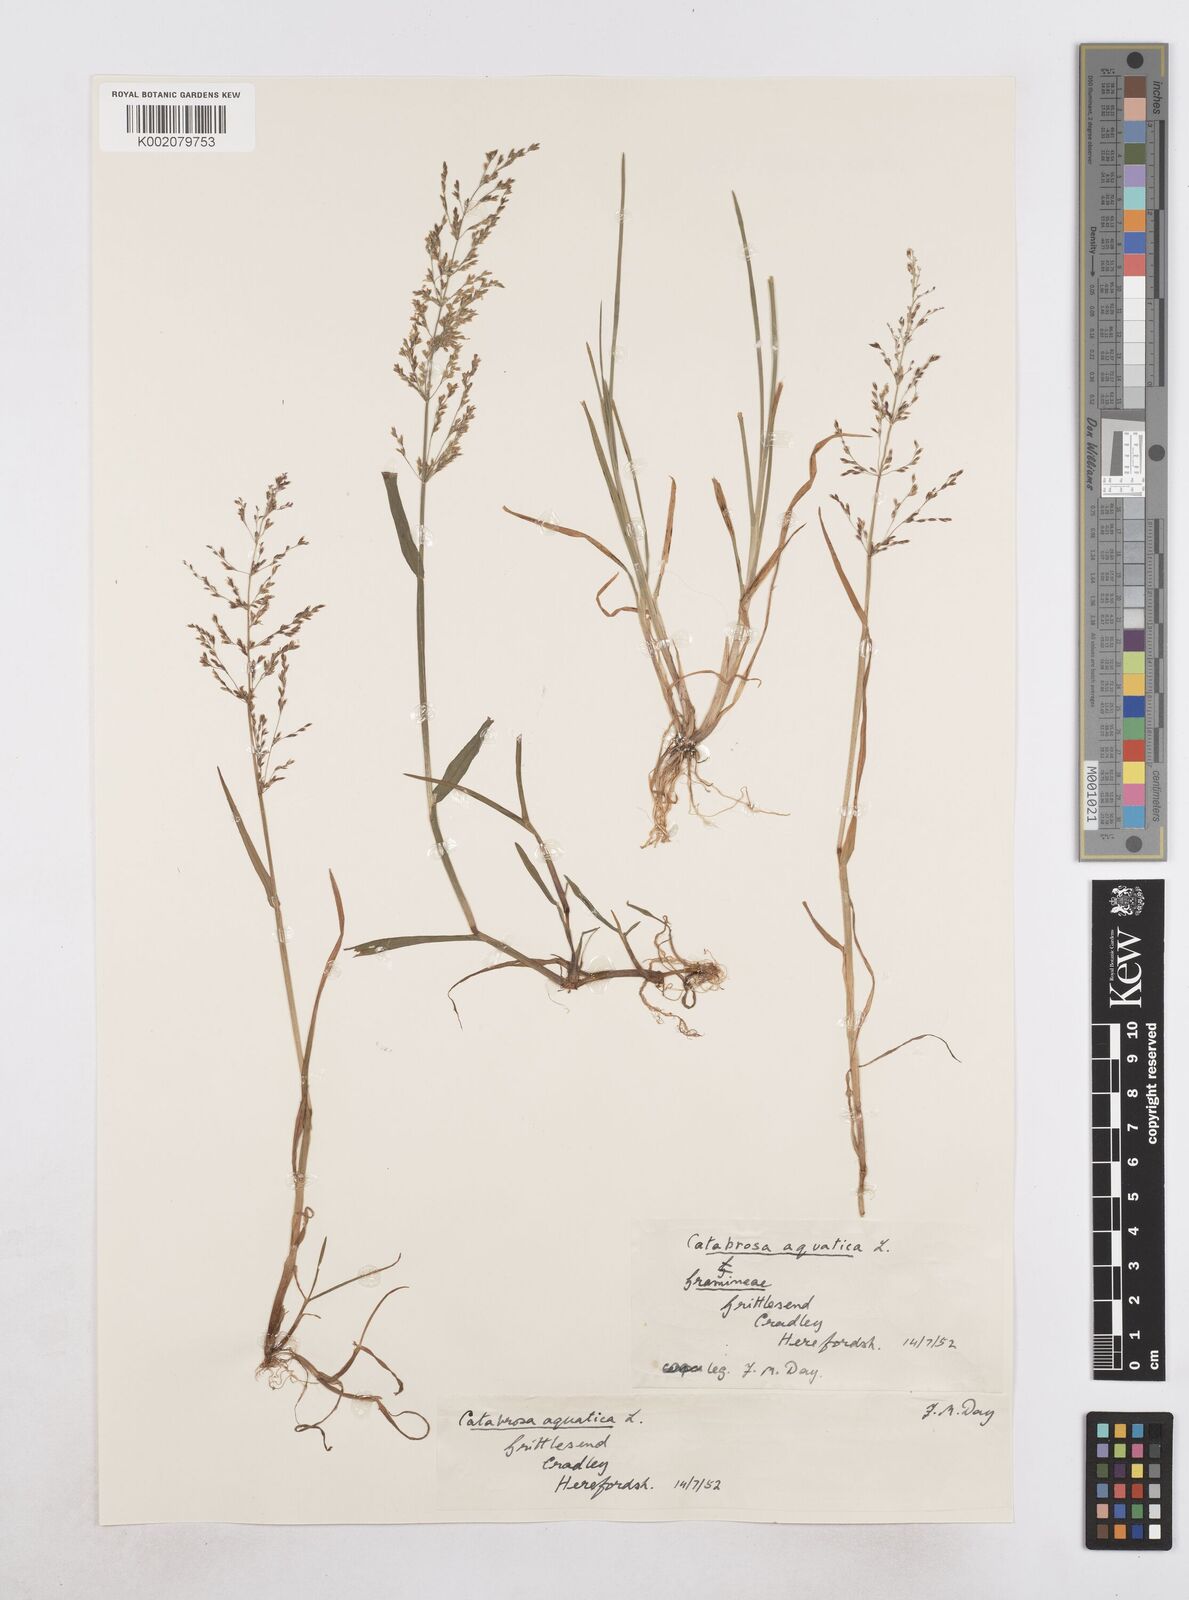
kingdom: Plantae
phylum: Tracheophyta
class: Liliopsida
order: Poales
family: Poaceae
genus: Catabrosa
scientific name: Catabrosa aquatica
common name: Whorl-grass
